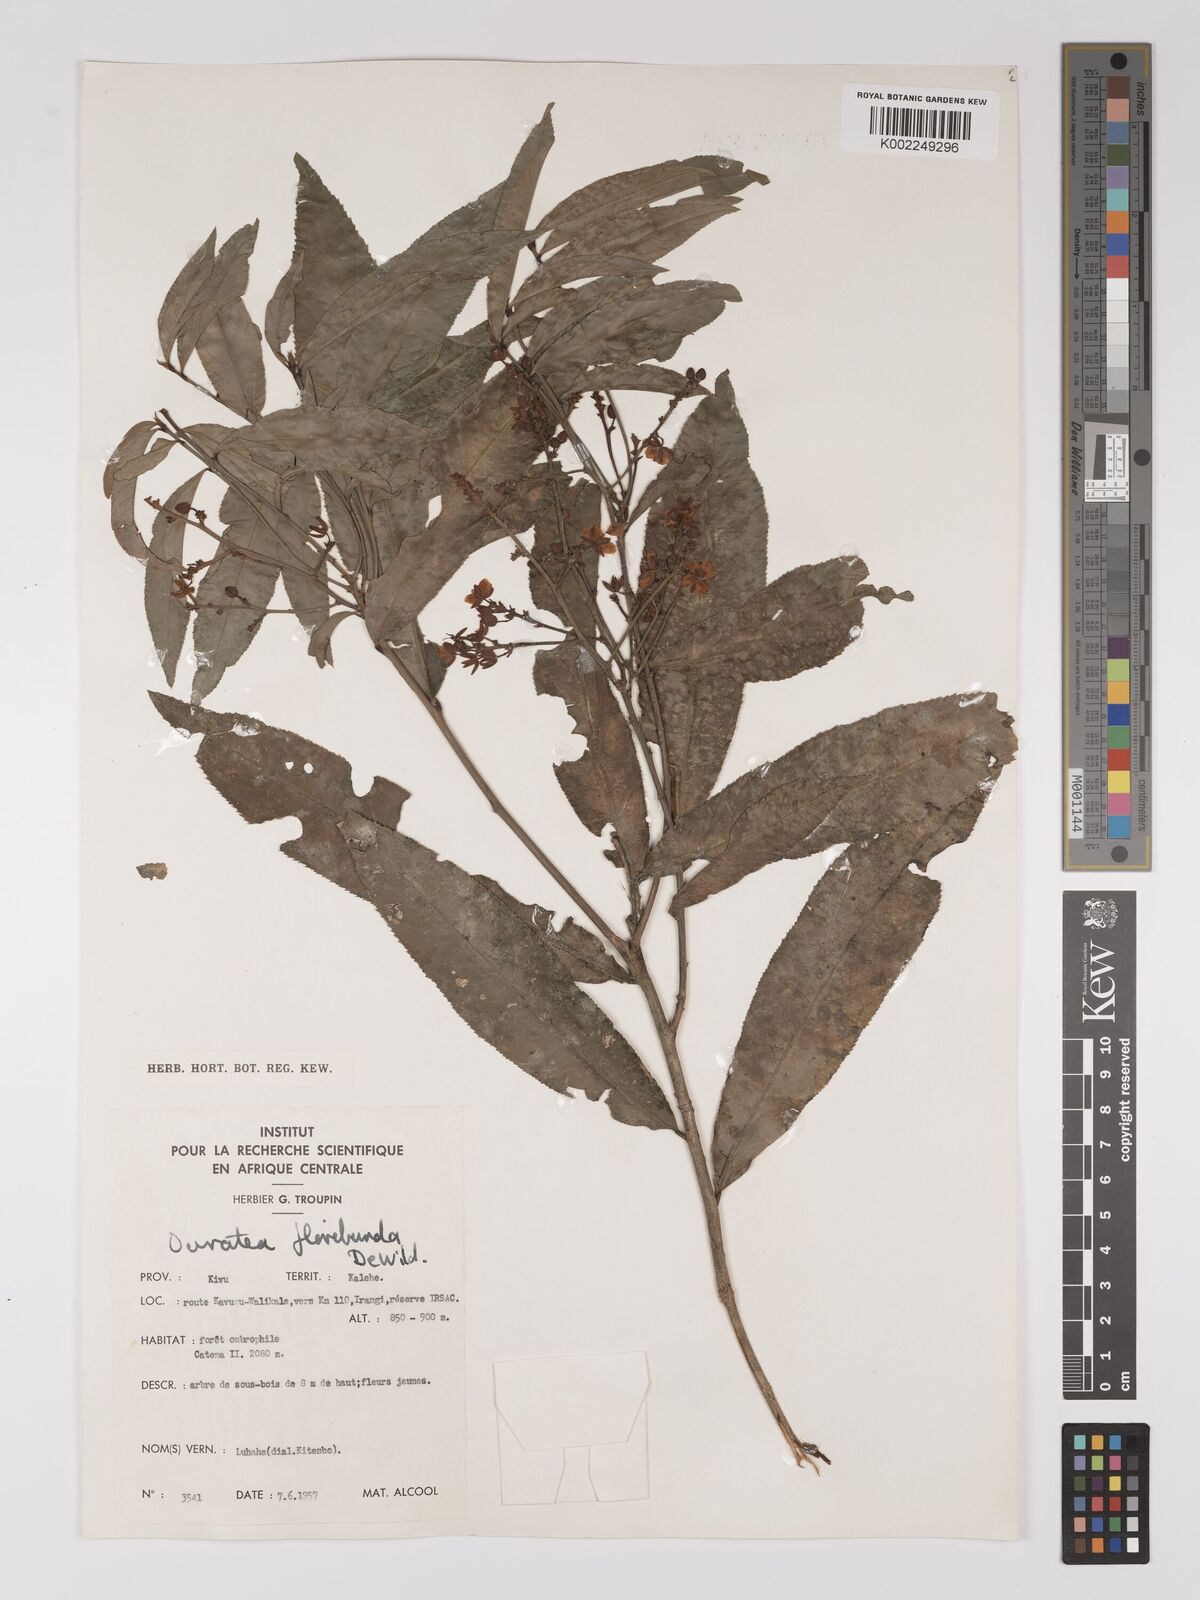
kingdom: Plantae
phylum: Tracheophyta
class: Magnoliopsida
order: Malpighiales
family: Ochnaceae
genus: Campylospermum
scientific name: Campylospermum likimiense
